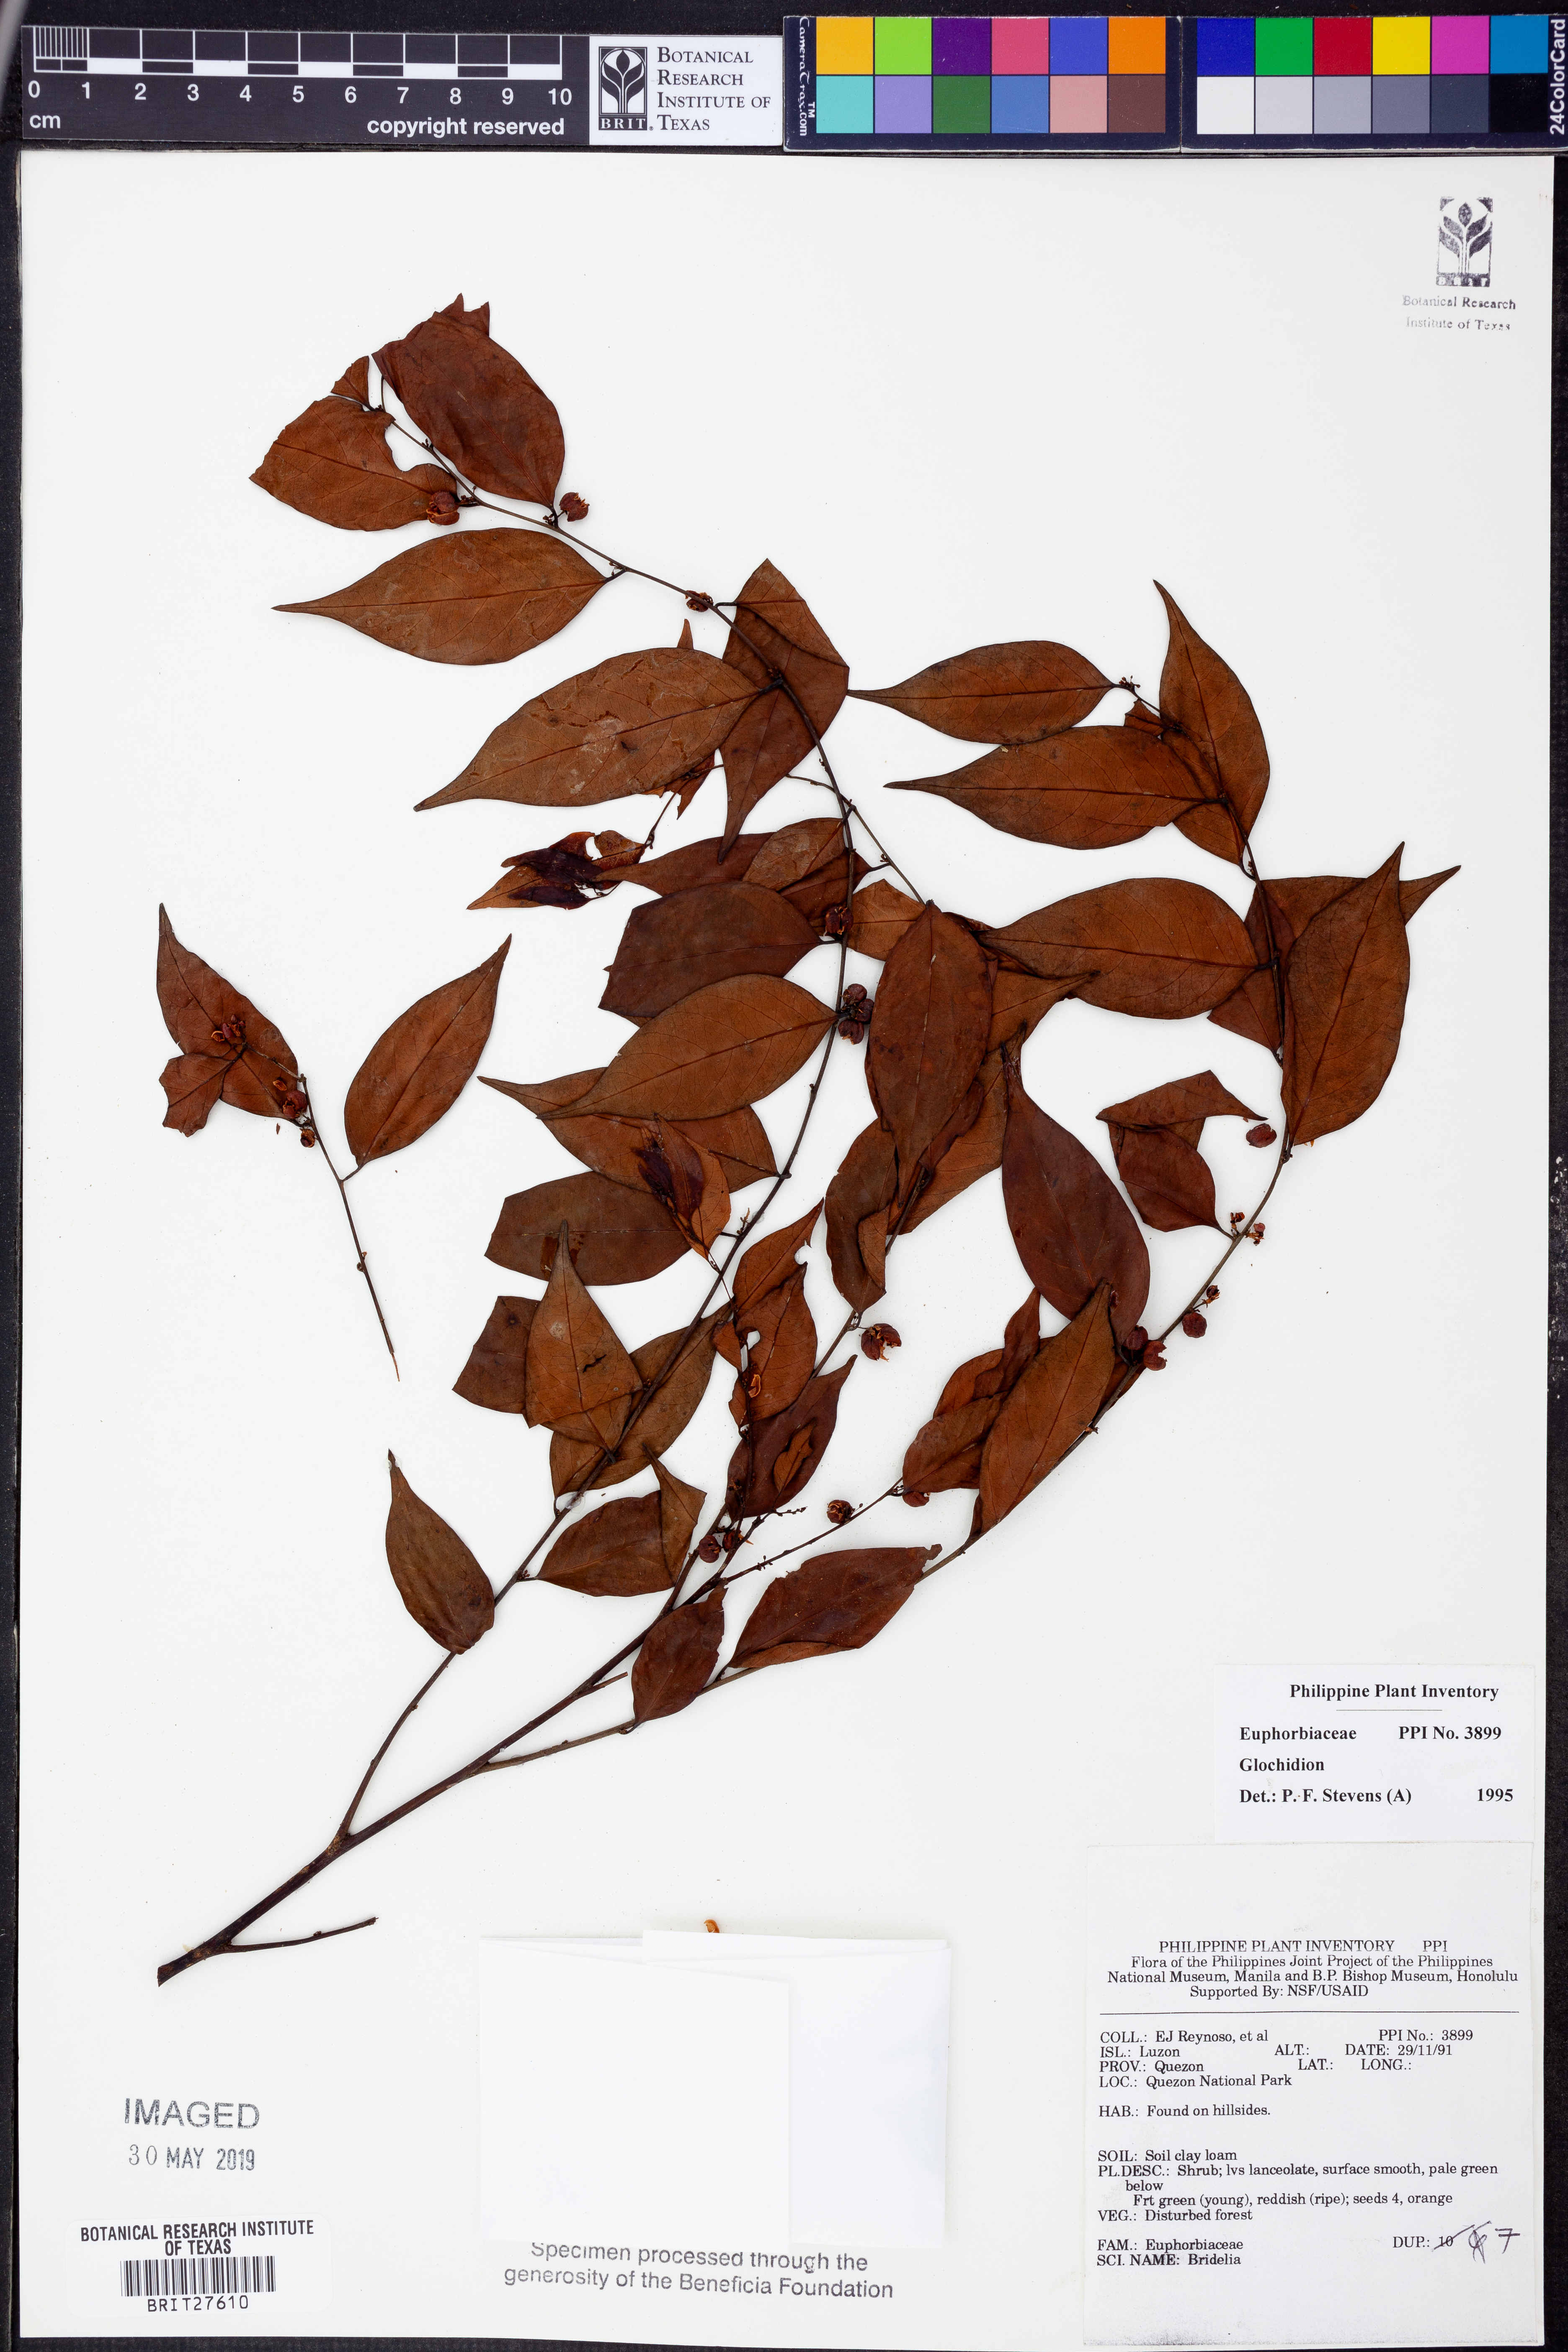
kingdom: Plantae
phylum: Tracheophyta
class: Magnoliopsida
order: Malpighiales
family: Phyllanthaceae
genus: Glochidion
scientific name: Glochidion
